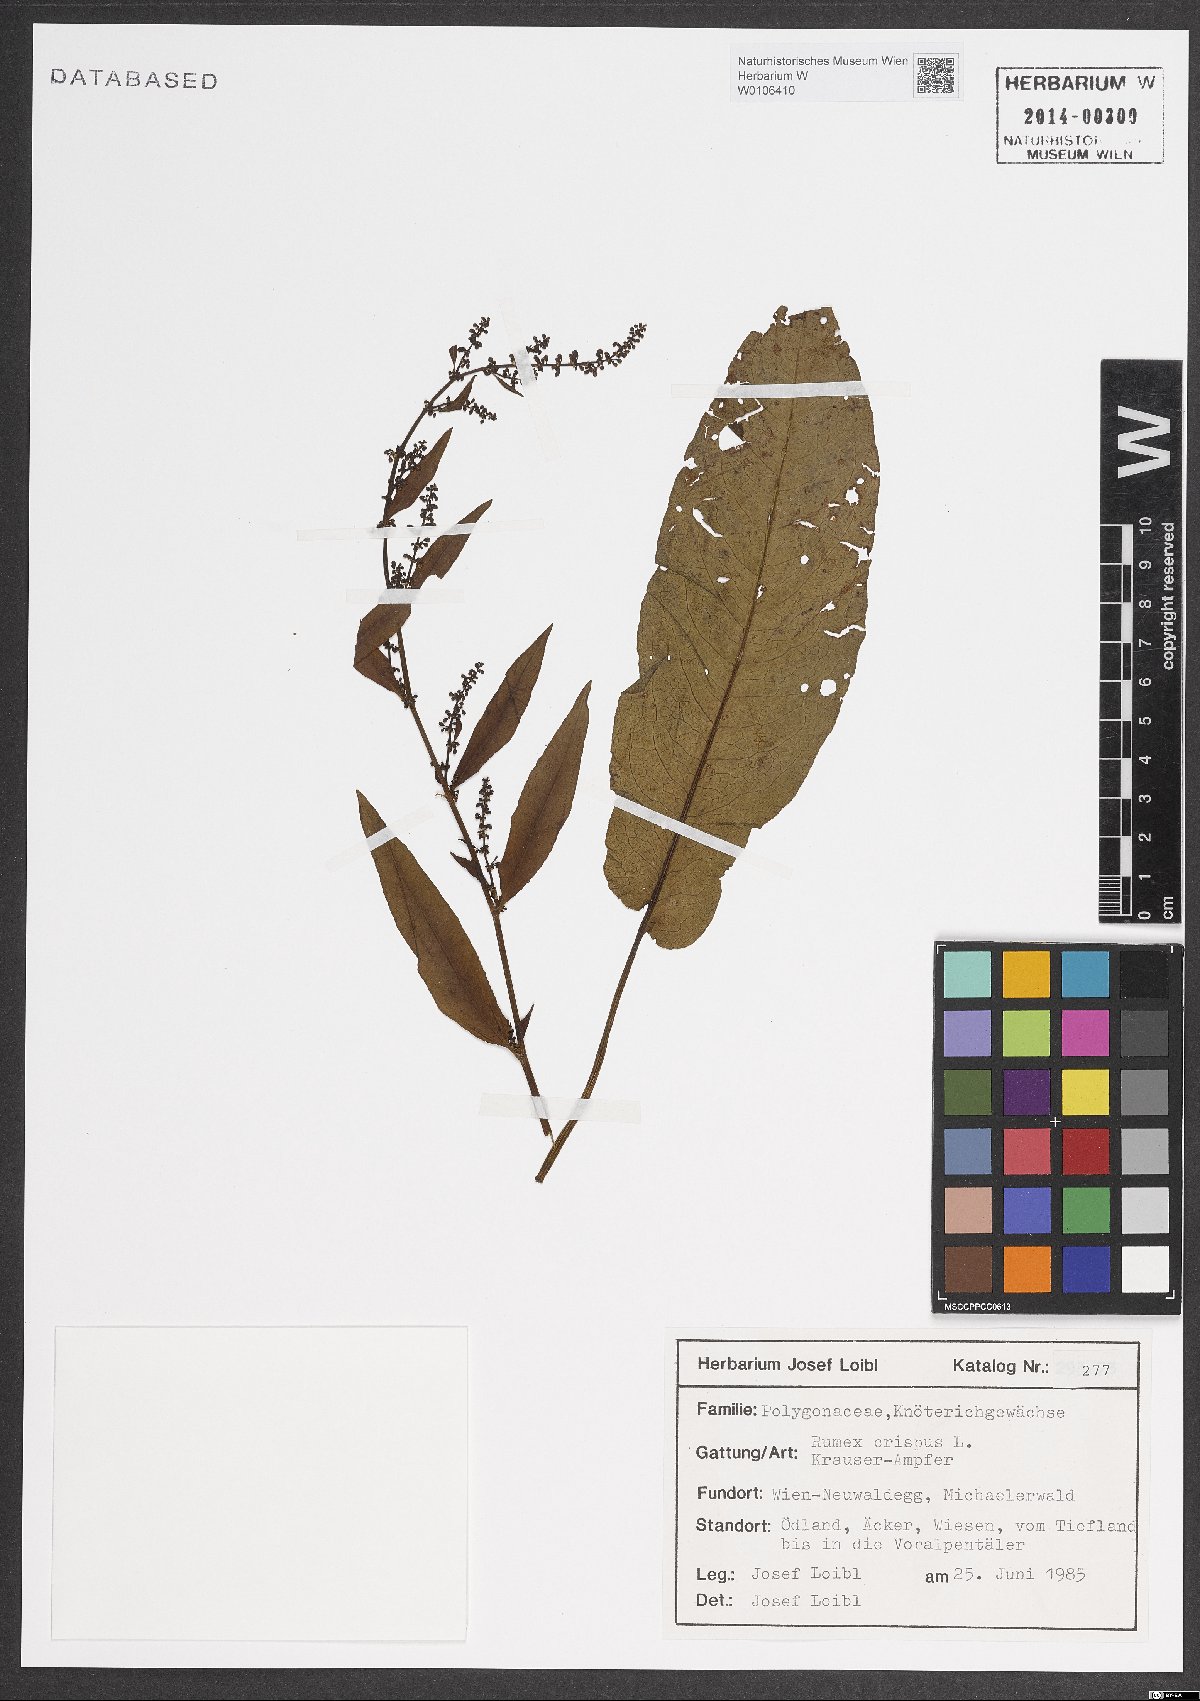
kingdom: Plantae
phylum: Tracheophyta
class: Magnoliopsida
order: Caryophyllales
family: Polygonaceae
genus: Rumex
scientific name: Rumex crispus
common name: Curled dock
